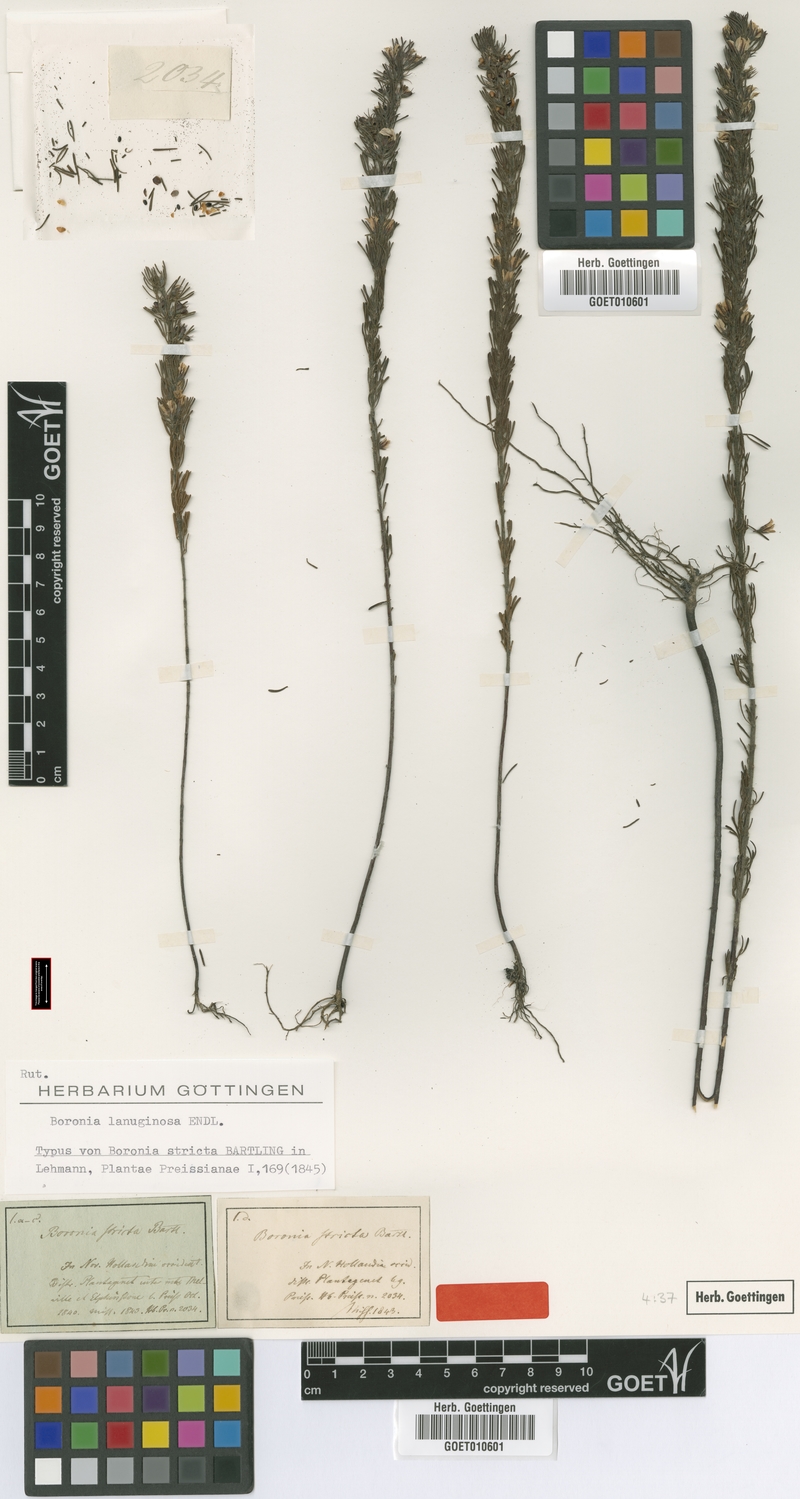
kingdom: Plantae
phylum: Tracheophyta
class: Magnoliopsida
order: Sapindales
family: Rutaceae
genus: Boronia
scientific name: Boronia lanuginosa
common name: Red boronia
